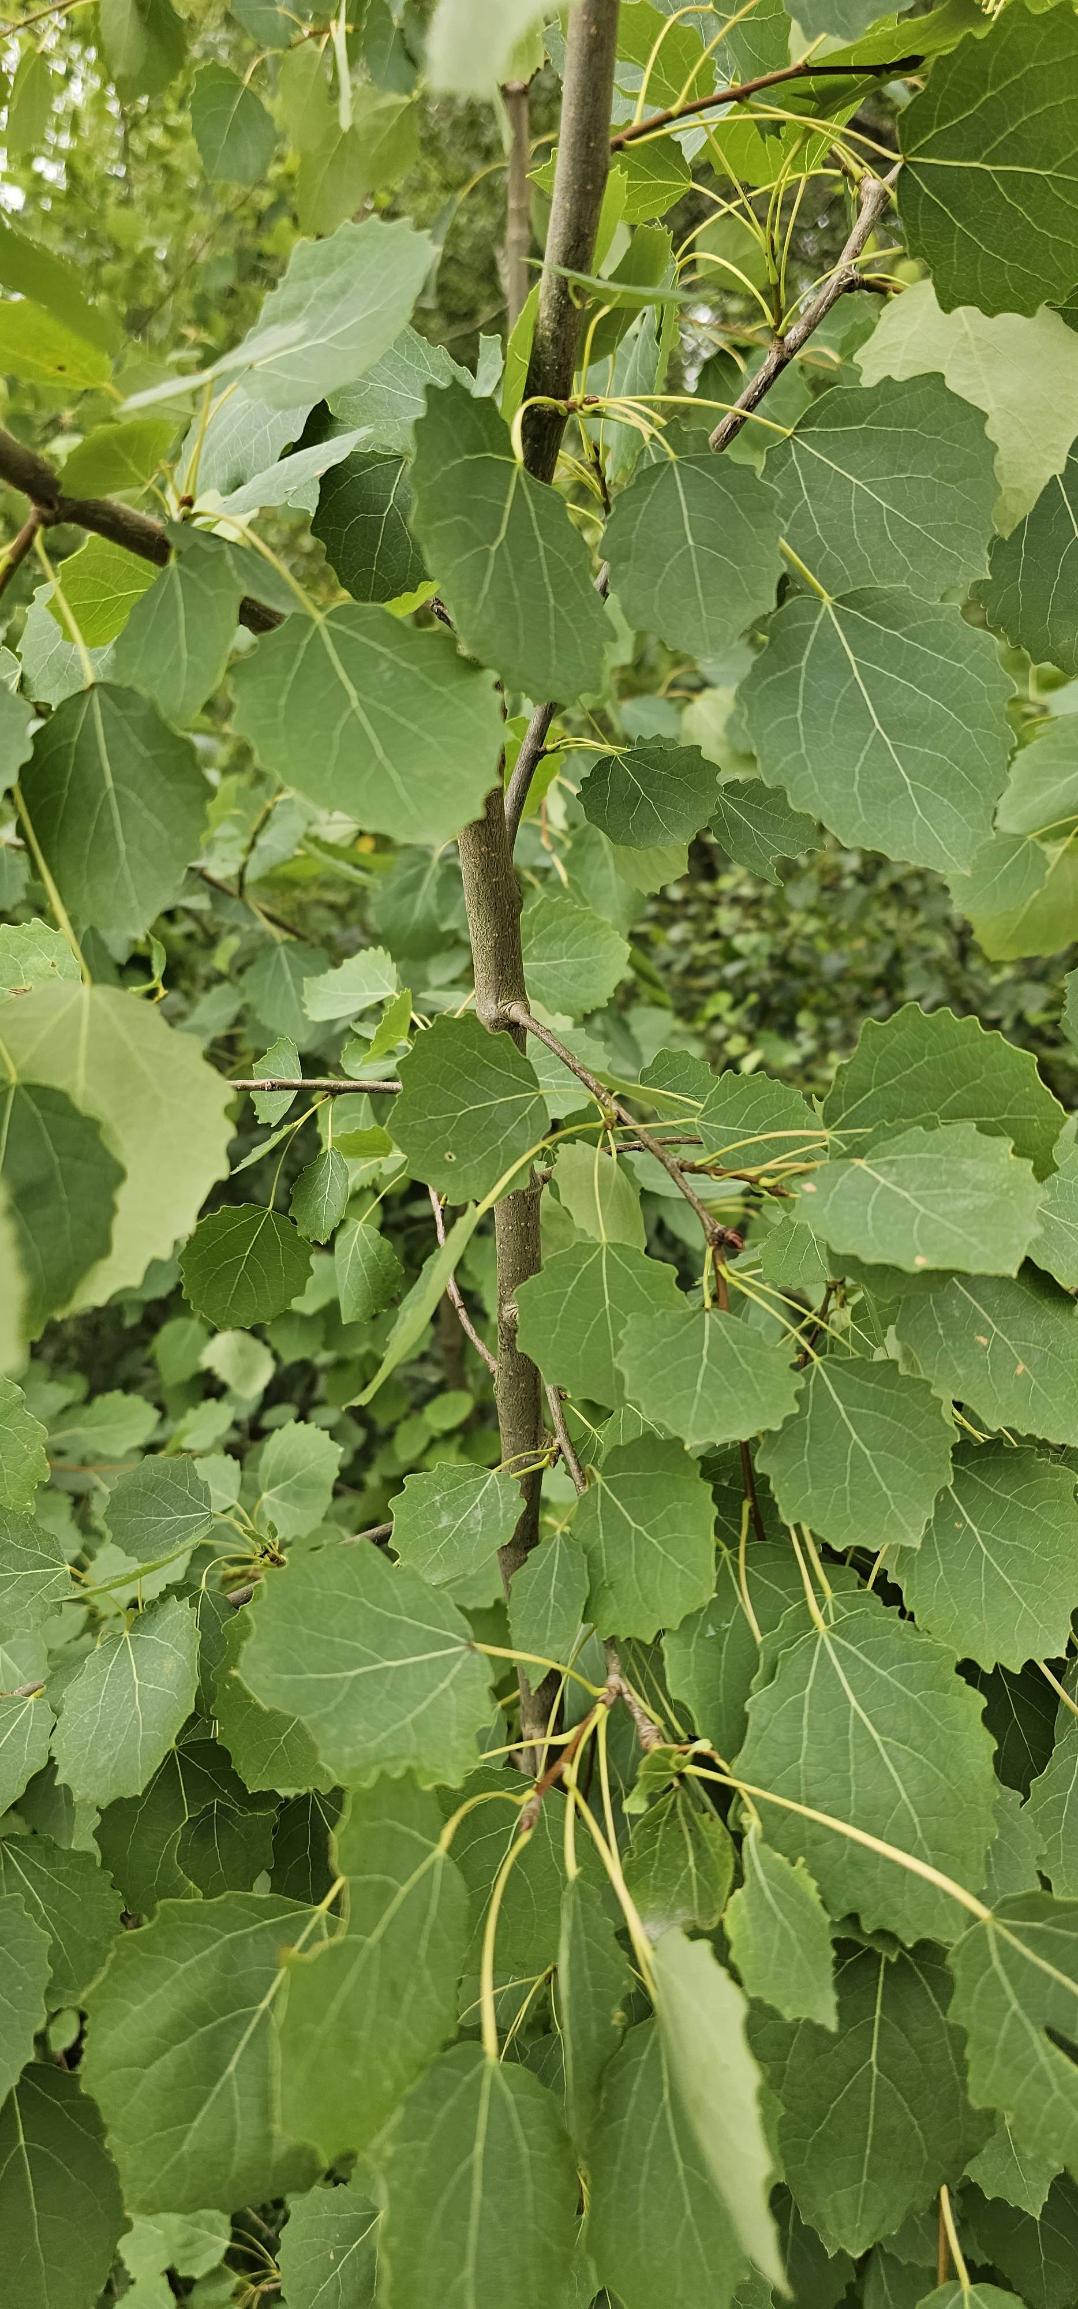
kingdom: Plantae
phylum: Tracheophyta
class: Magnoliopsida
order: Malpighiales
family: Salicaceae
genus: Populus
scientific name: Populus tremula
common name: Bævreasp
